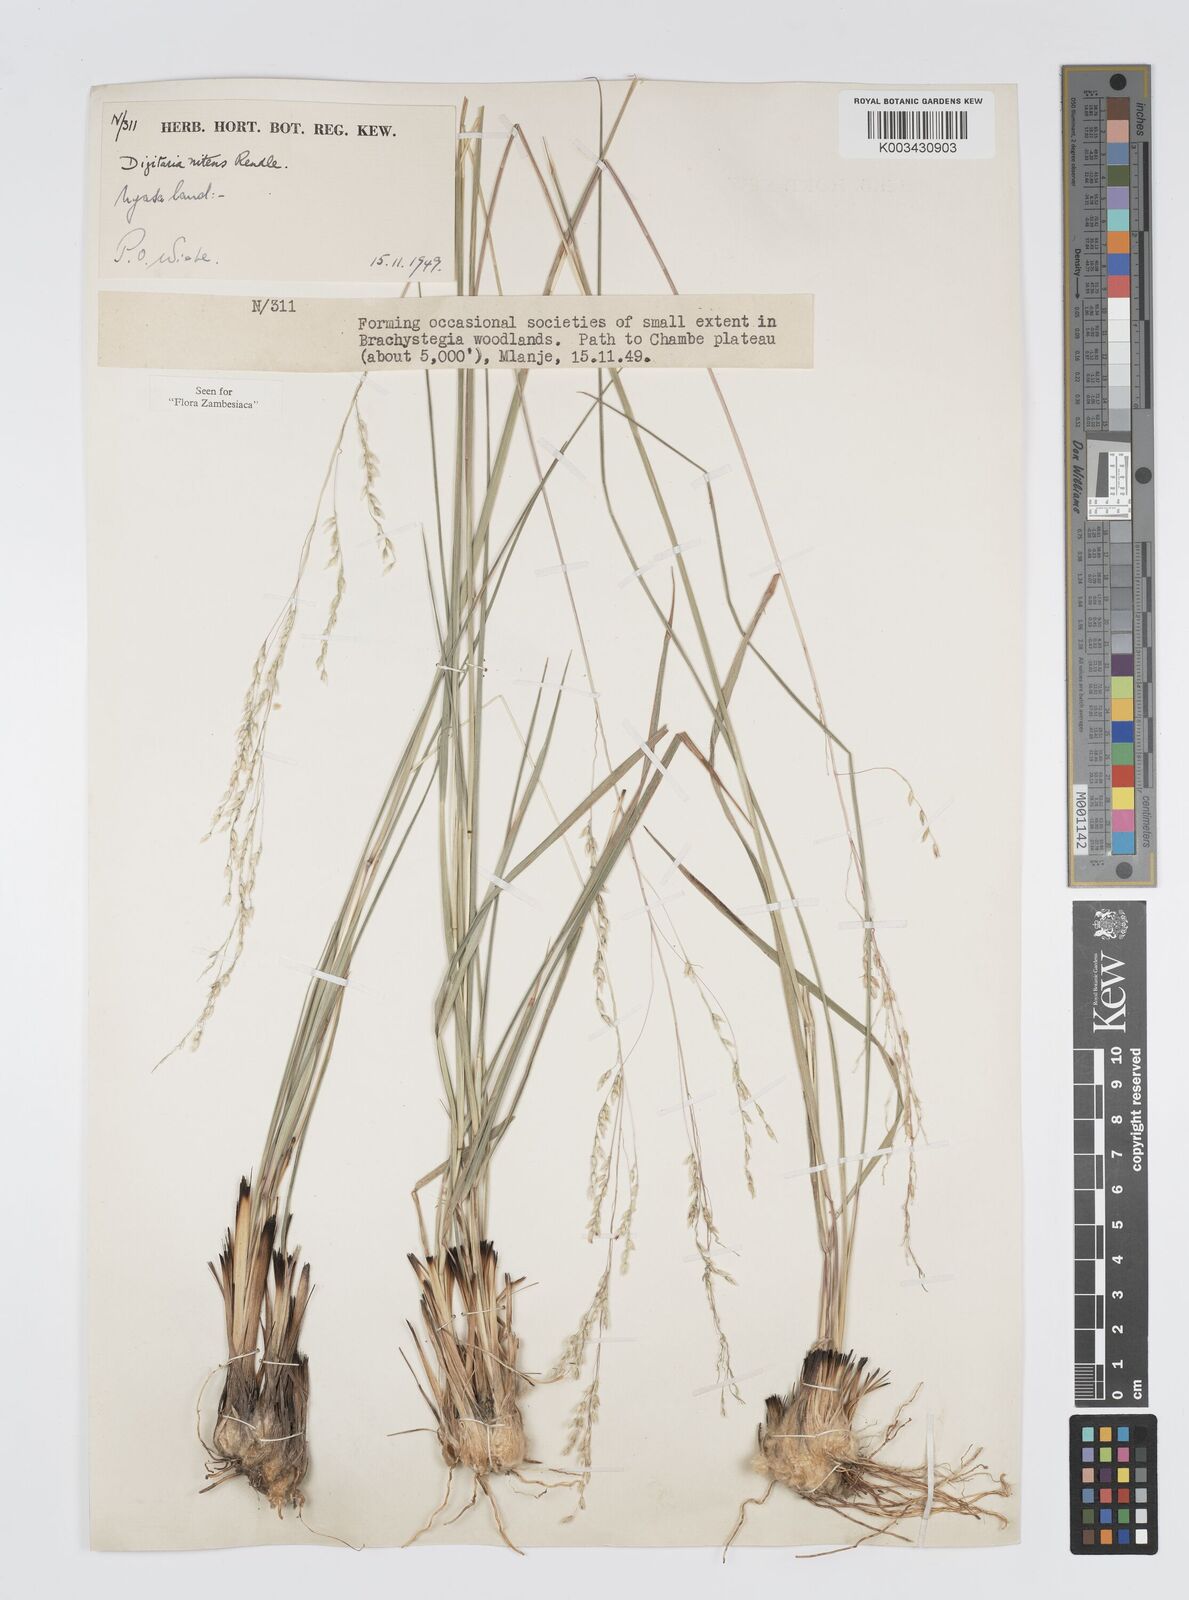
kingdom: Plantae
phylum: Tracheophyta
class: Liliopsida
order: Poales
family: Poaceae
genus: Digitaria
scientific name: Digitaria flaccida
